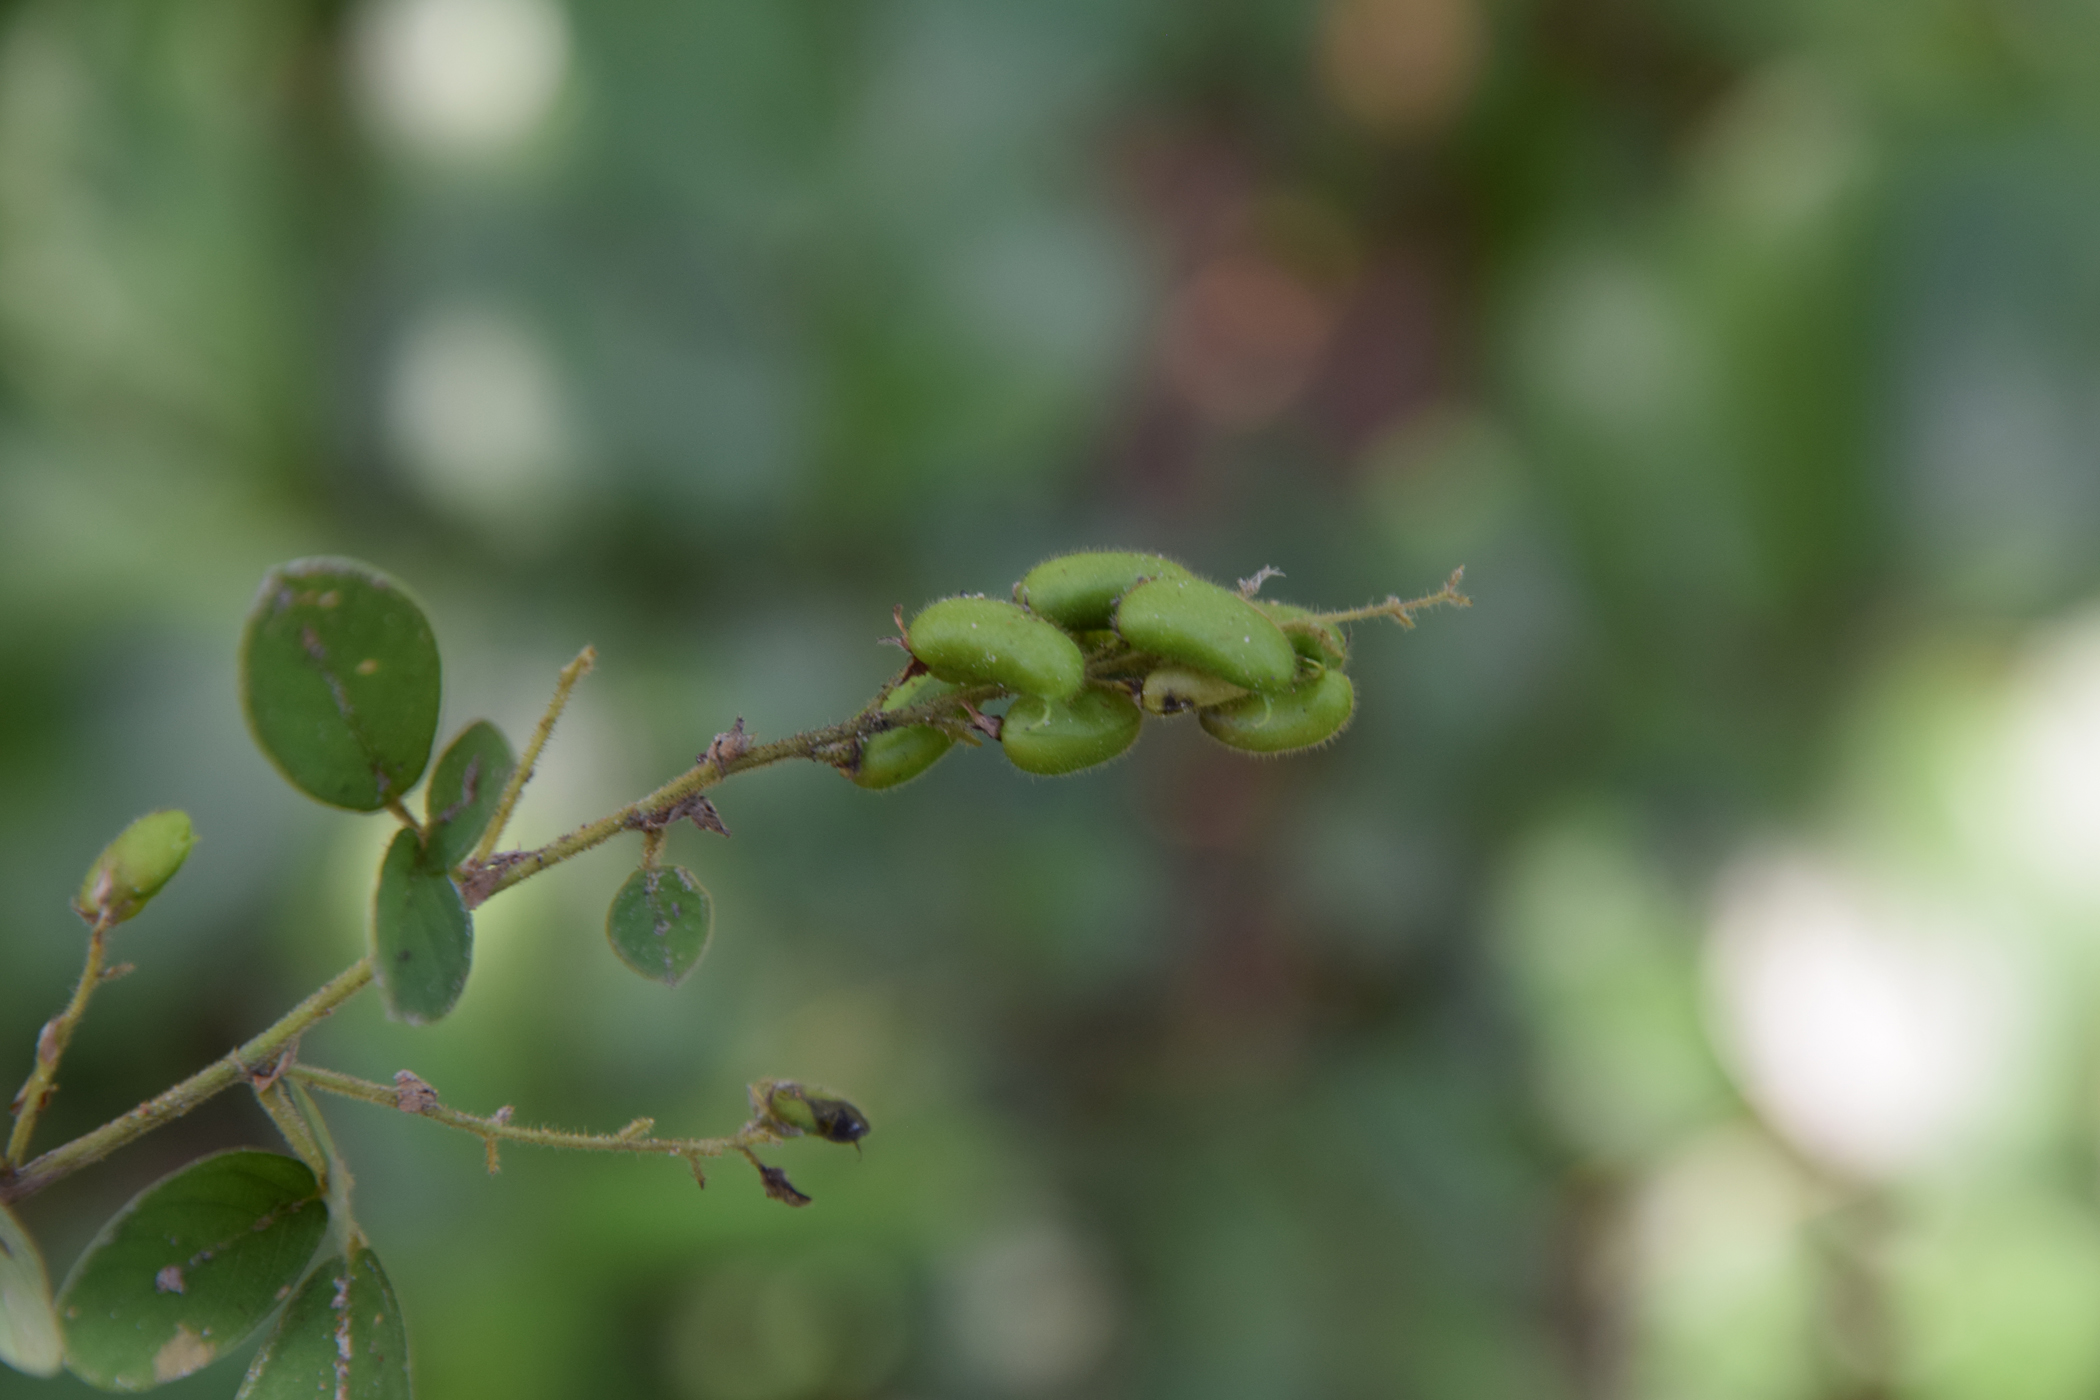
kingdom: Plantae
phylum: Tracheophyta
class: Magnoliopsida
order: Fabales
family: Fabaceae
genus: Pycnospora
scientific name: Pycnospora lutescens
